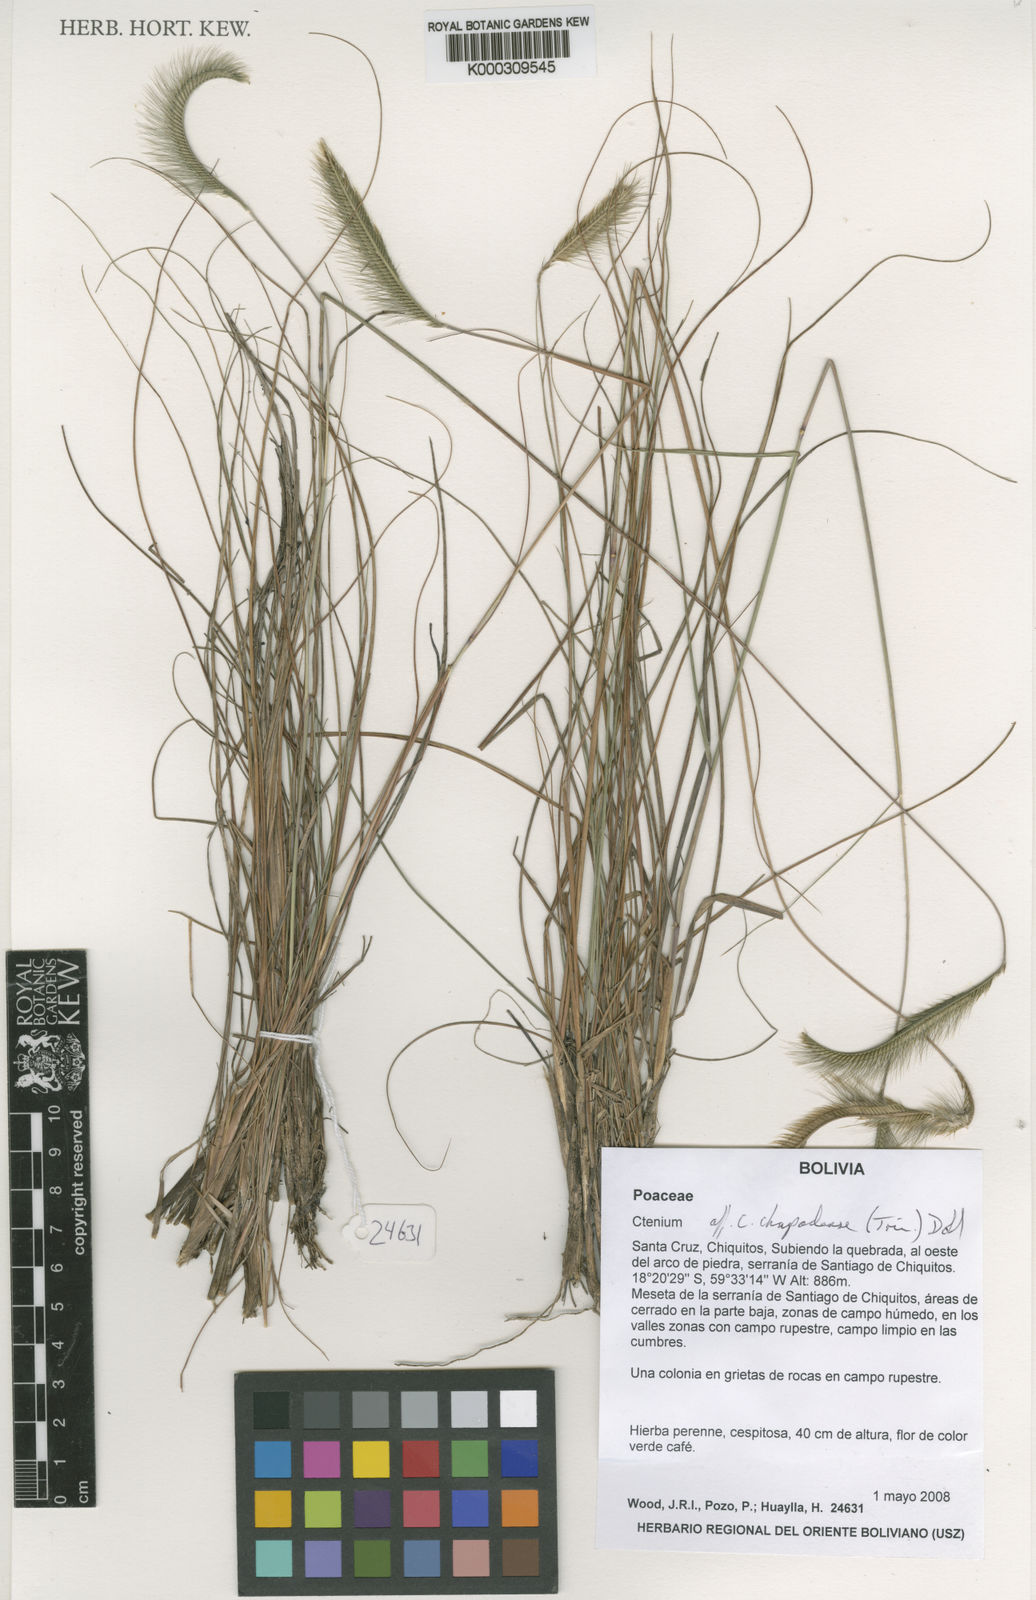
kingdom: Plantae
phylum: Tracheophyta
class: Liliopsida
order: Poales
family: Poaceae
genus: Ctenium
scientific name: Ctenium
